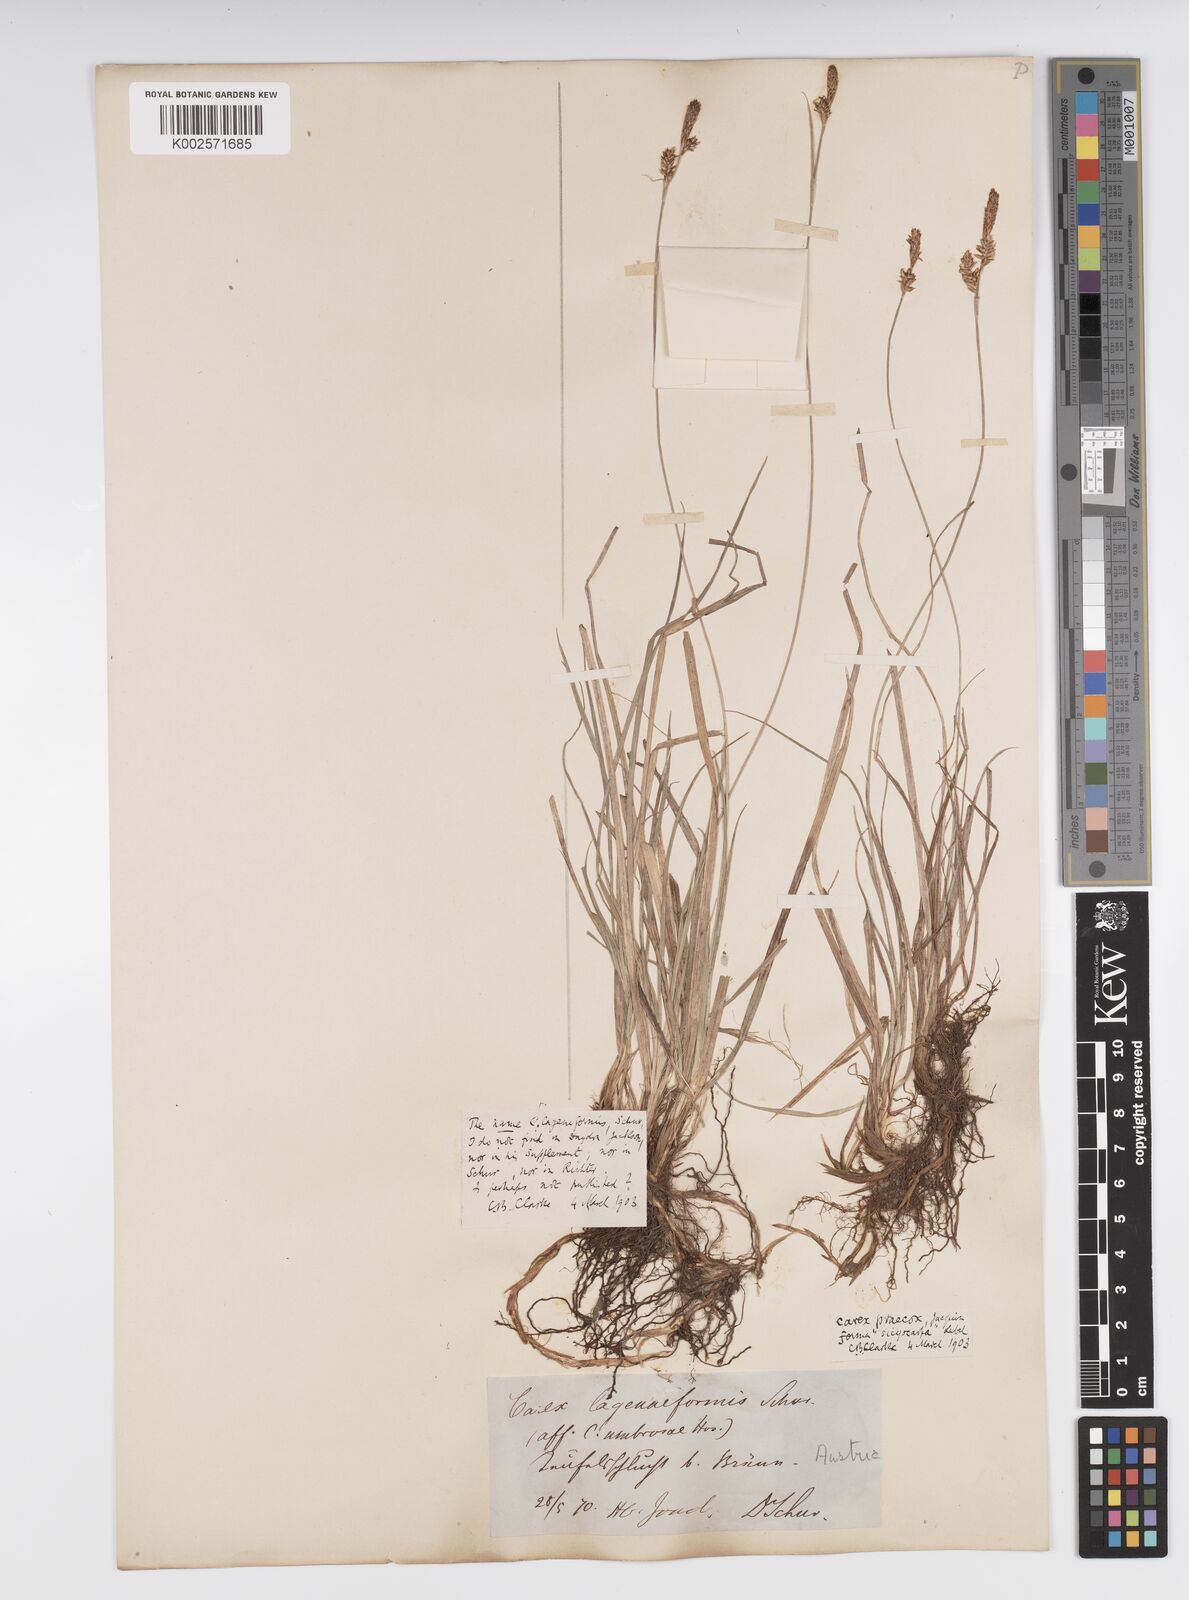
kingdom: Plantae
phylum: Tracheophyta
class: Liliopsida
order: Poales
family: Cyperaceae
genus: Carex
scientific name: Carex caryophyllea
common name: Spring sedge
